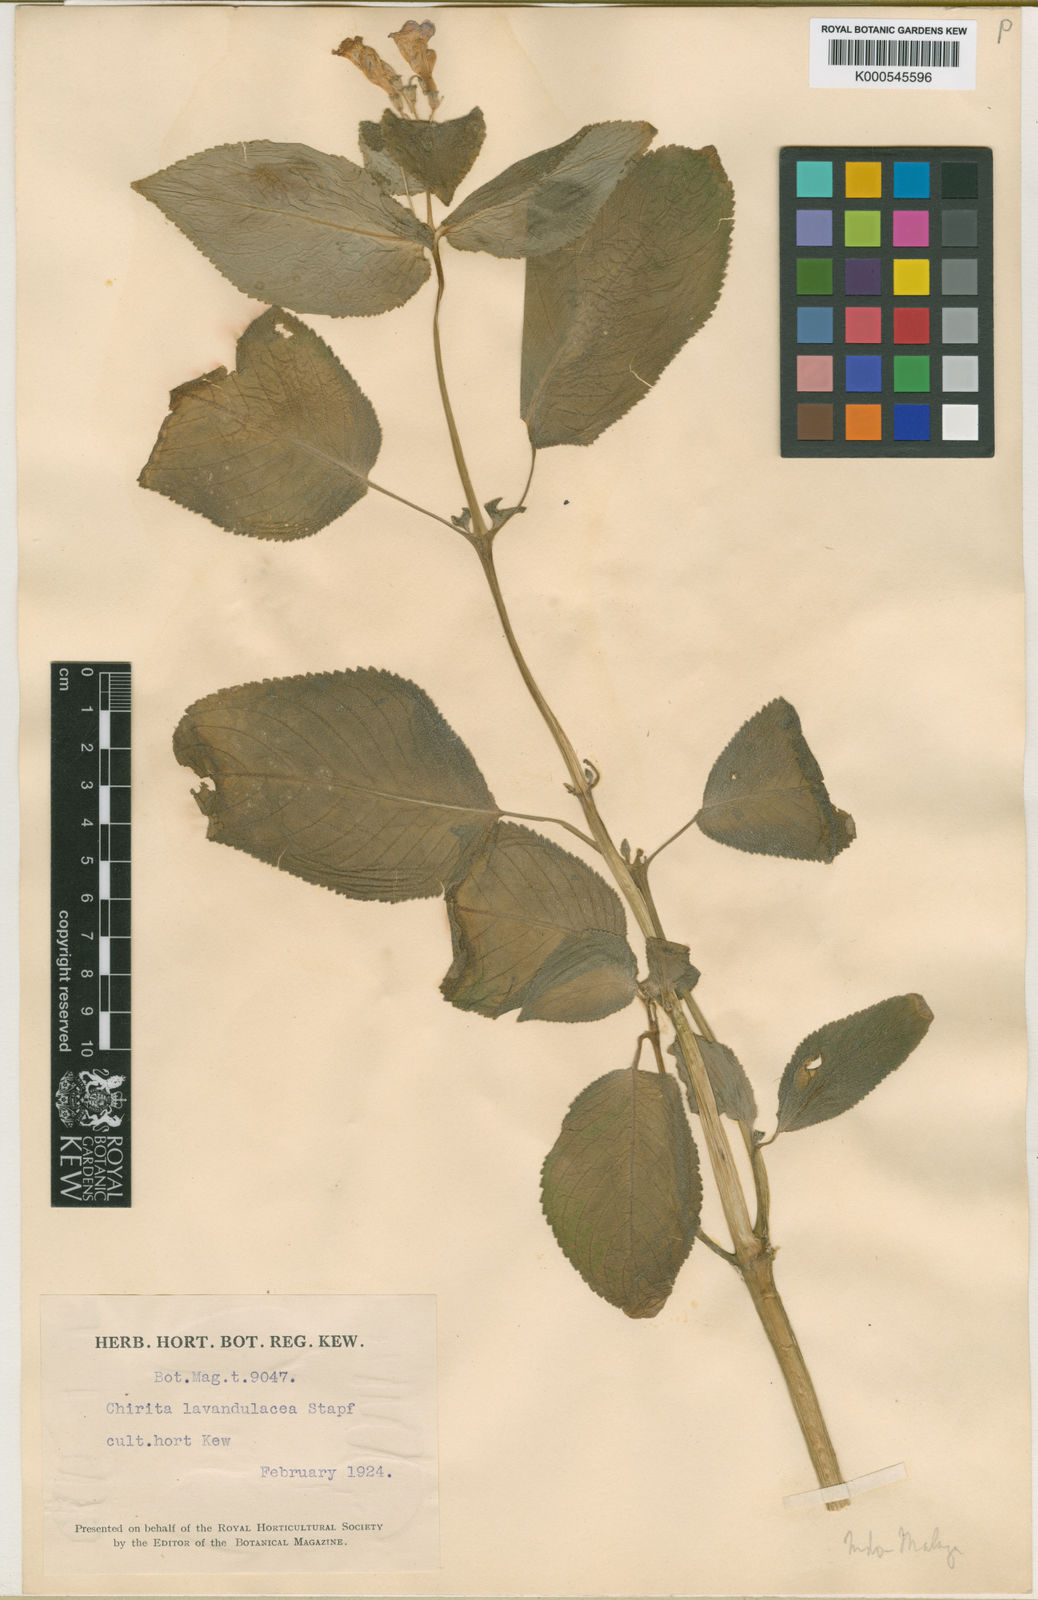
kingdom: Plantae
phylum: Tracheophyta
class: Magnoliopsida
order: Lamiales
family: Gesneriaceae
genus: Microchirita
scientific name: Microchirita lavandulacea
